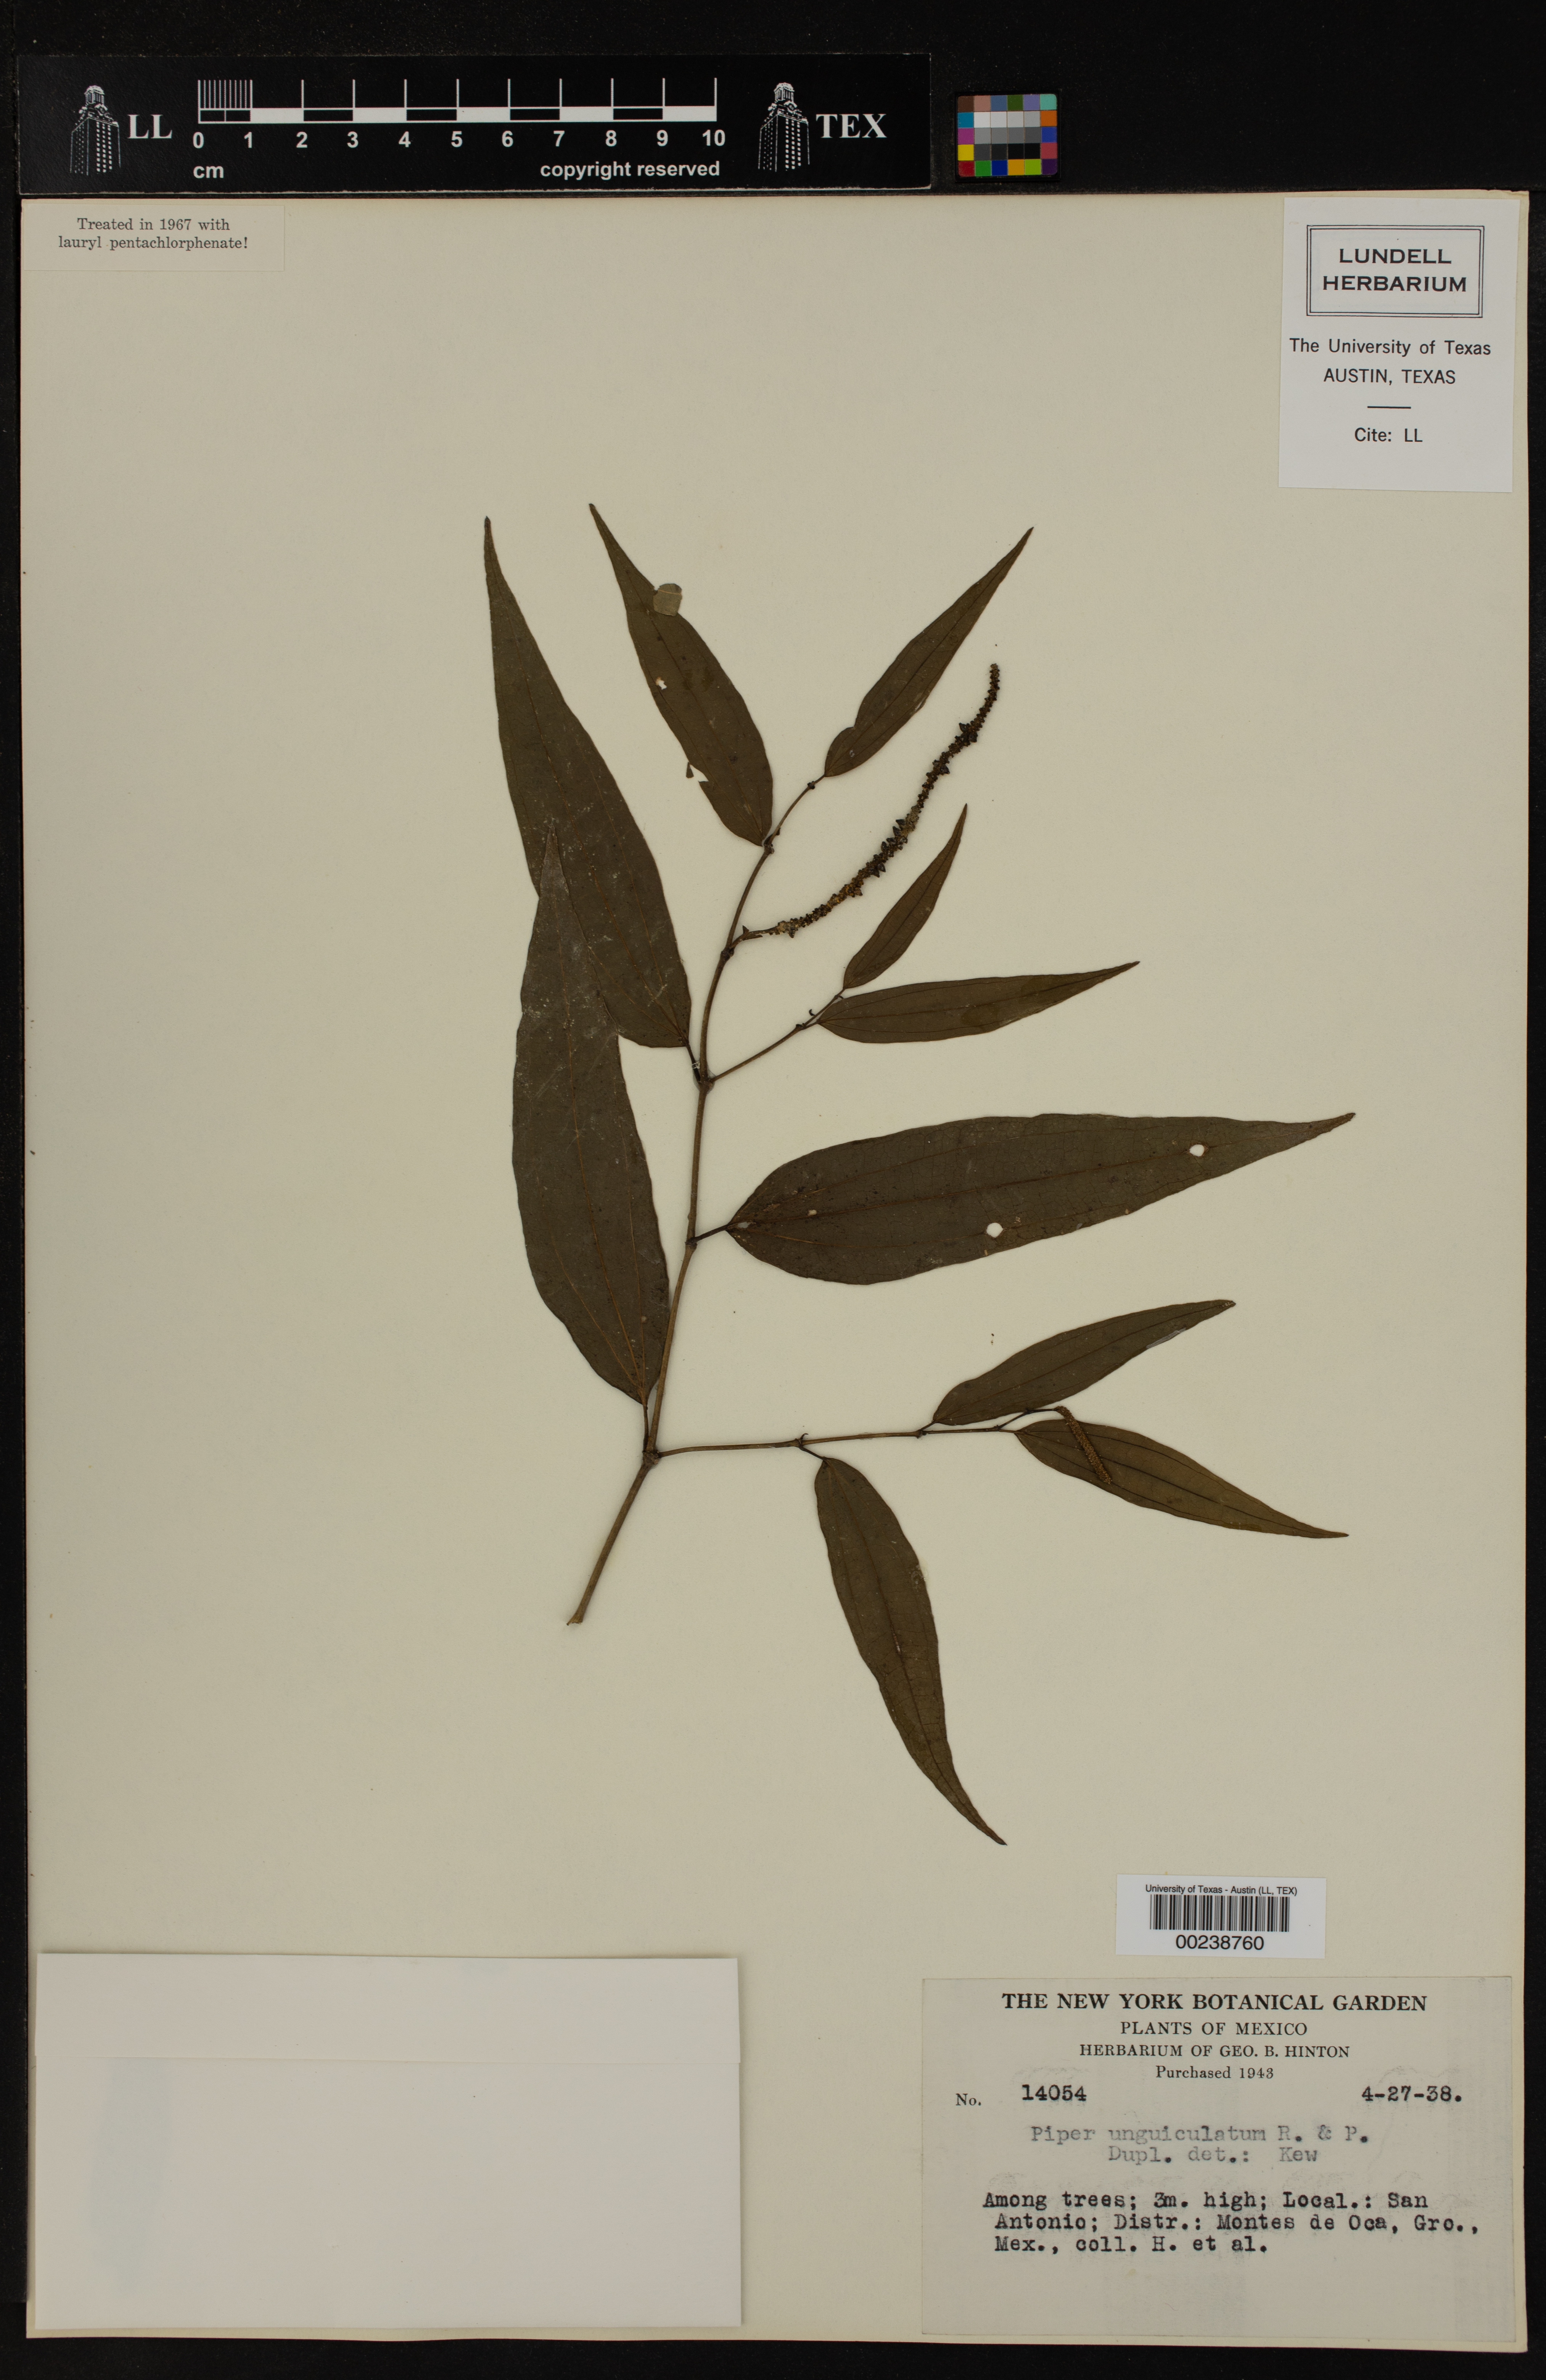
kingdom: Plantae
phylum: Tracheophyta
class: Magnoliopsida
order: Piperales
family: Piperaceae
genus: Piper
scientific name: Piper unguiculatum
